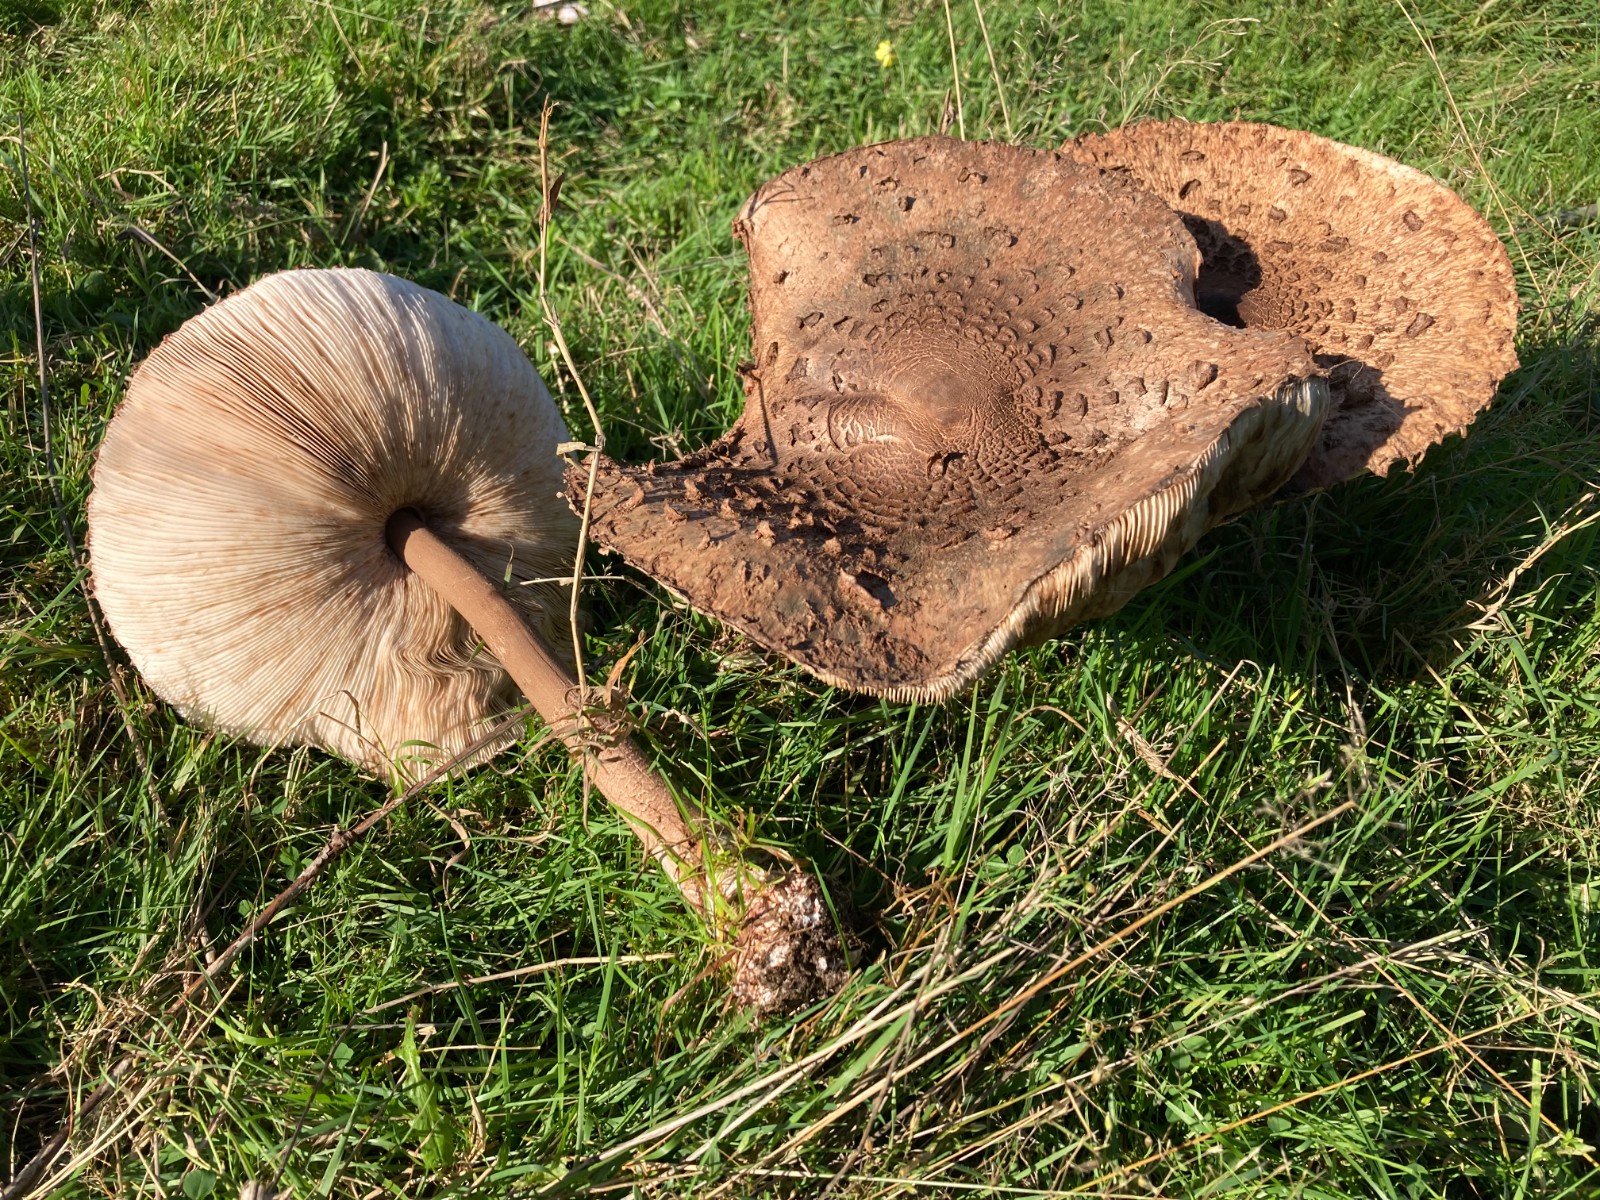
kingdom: Fungi
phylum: Basidiomycota
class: Agaricomycetes
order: Agaricales
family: Agaricaceae
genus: Macrolepiota
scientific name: Macrolepiota procera
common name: stor kæmpeparasolhat
